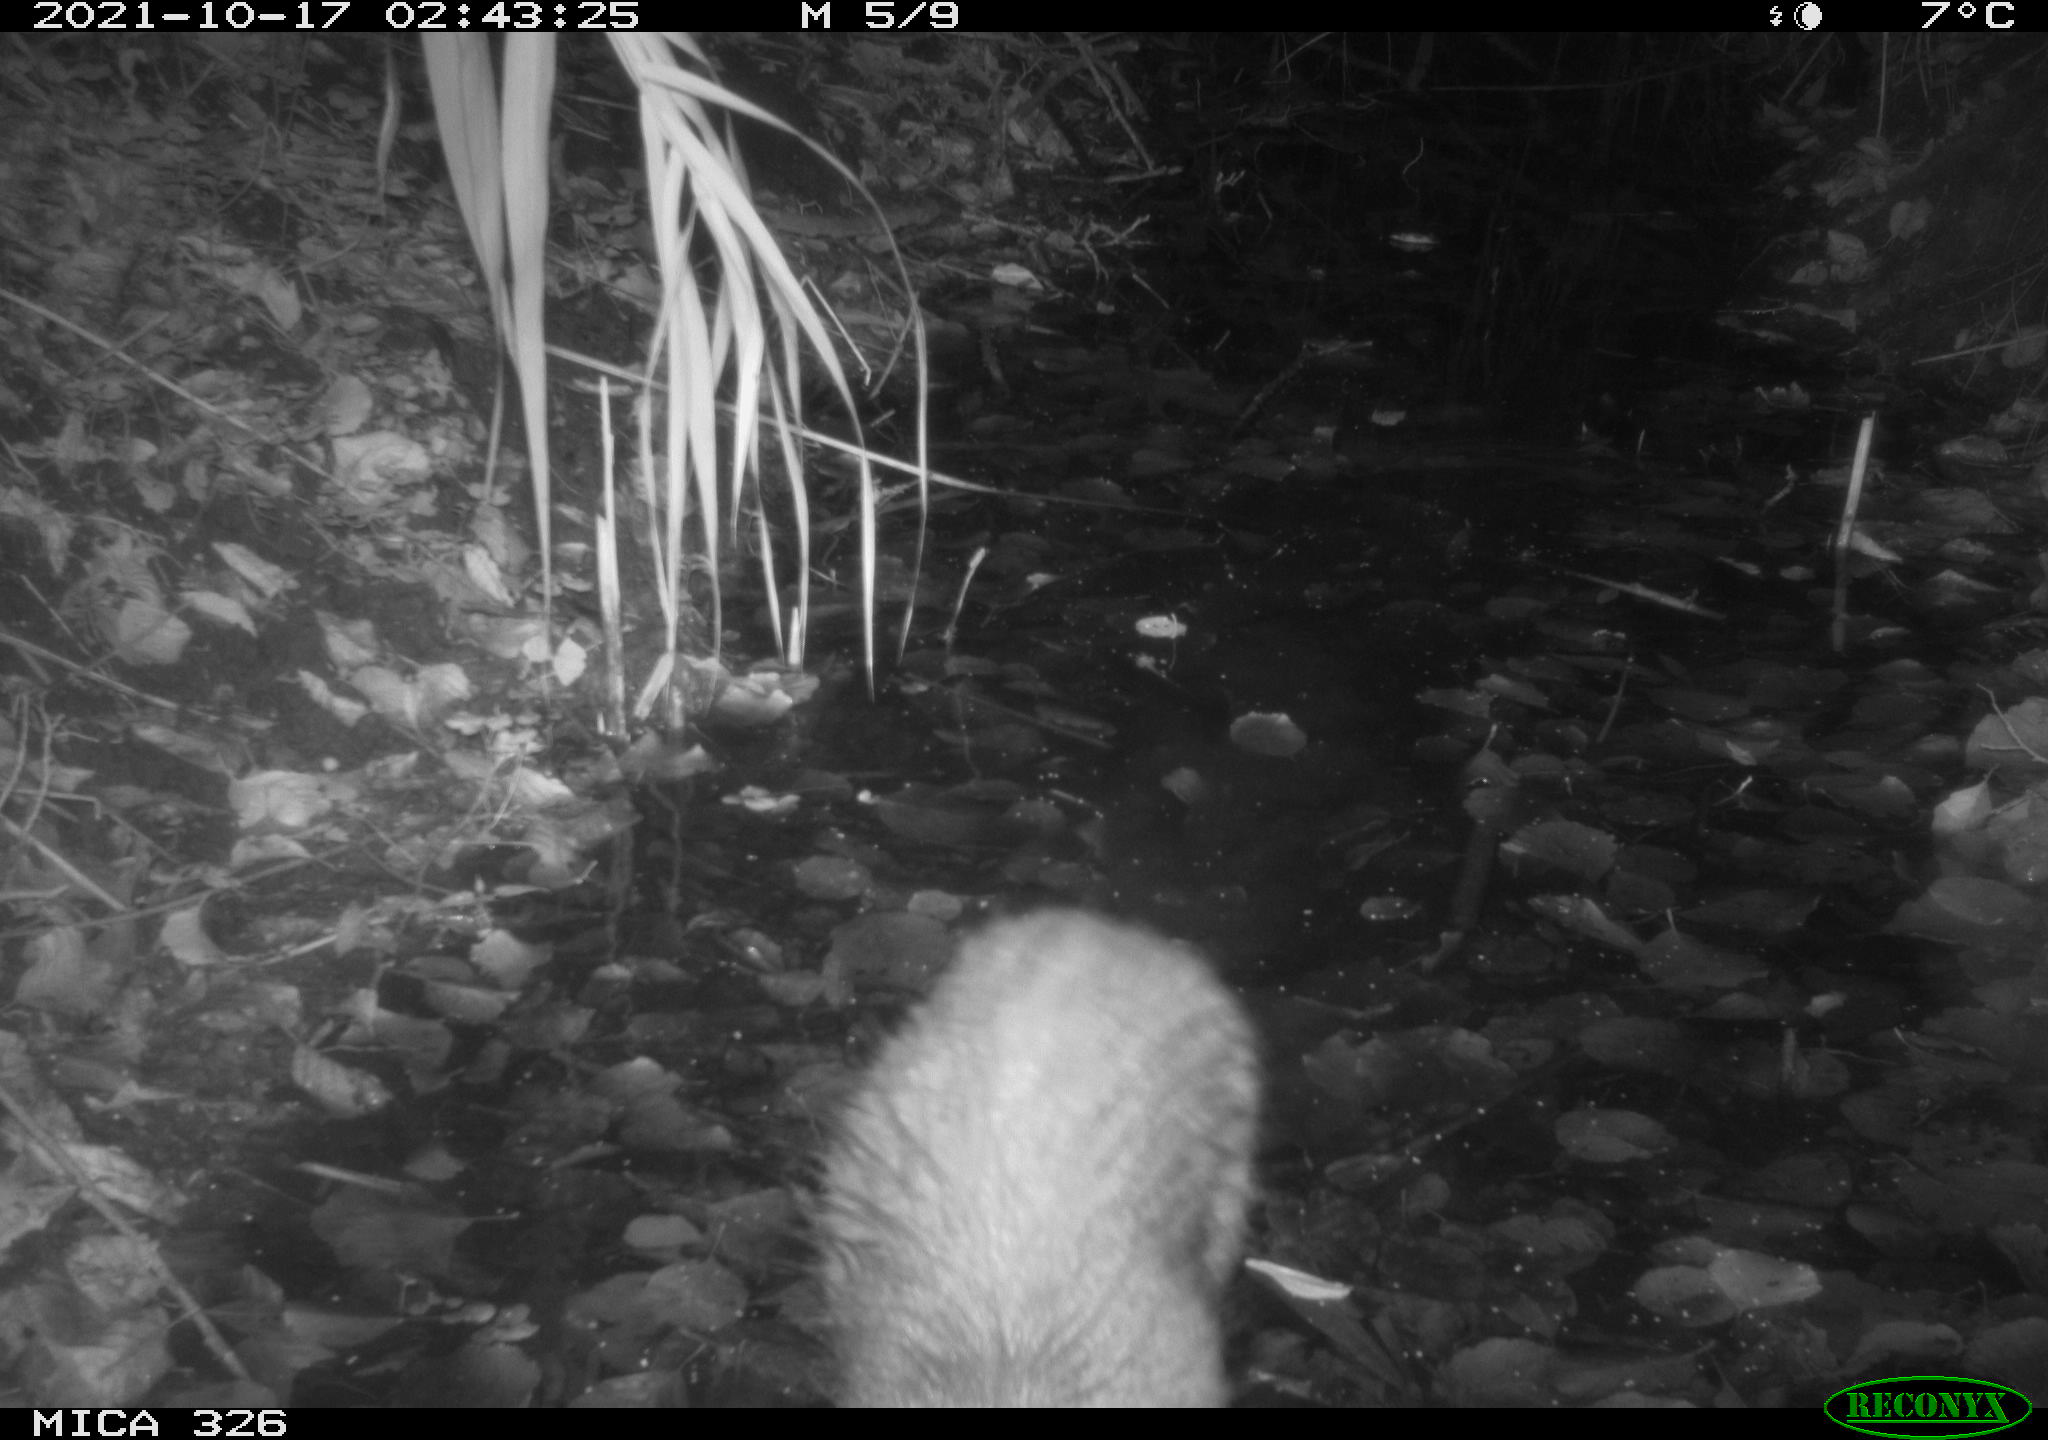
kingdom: Animalia
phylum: Chordata
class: Mammalia
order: Rodentia
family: Myocastoridae
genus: Myocastor
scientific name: Myocastor coypus
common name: Coypu
